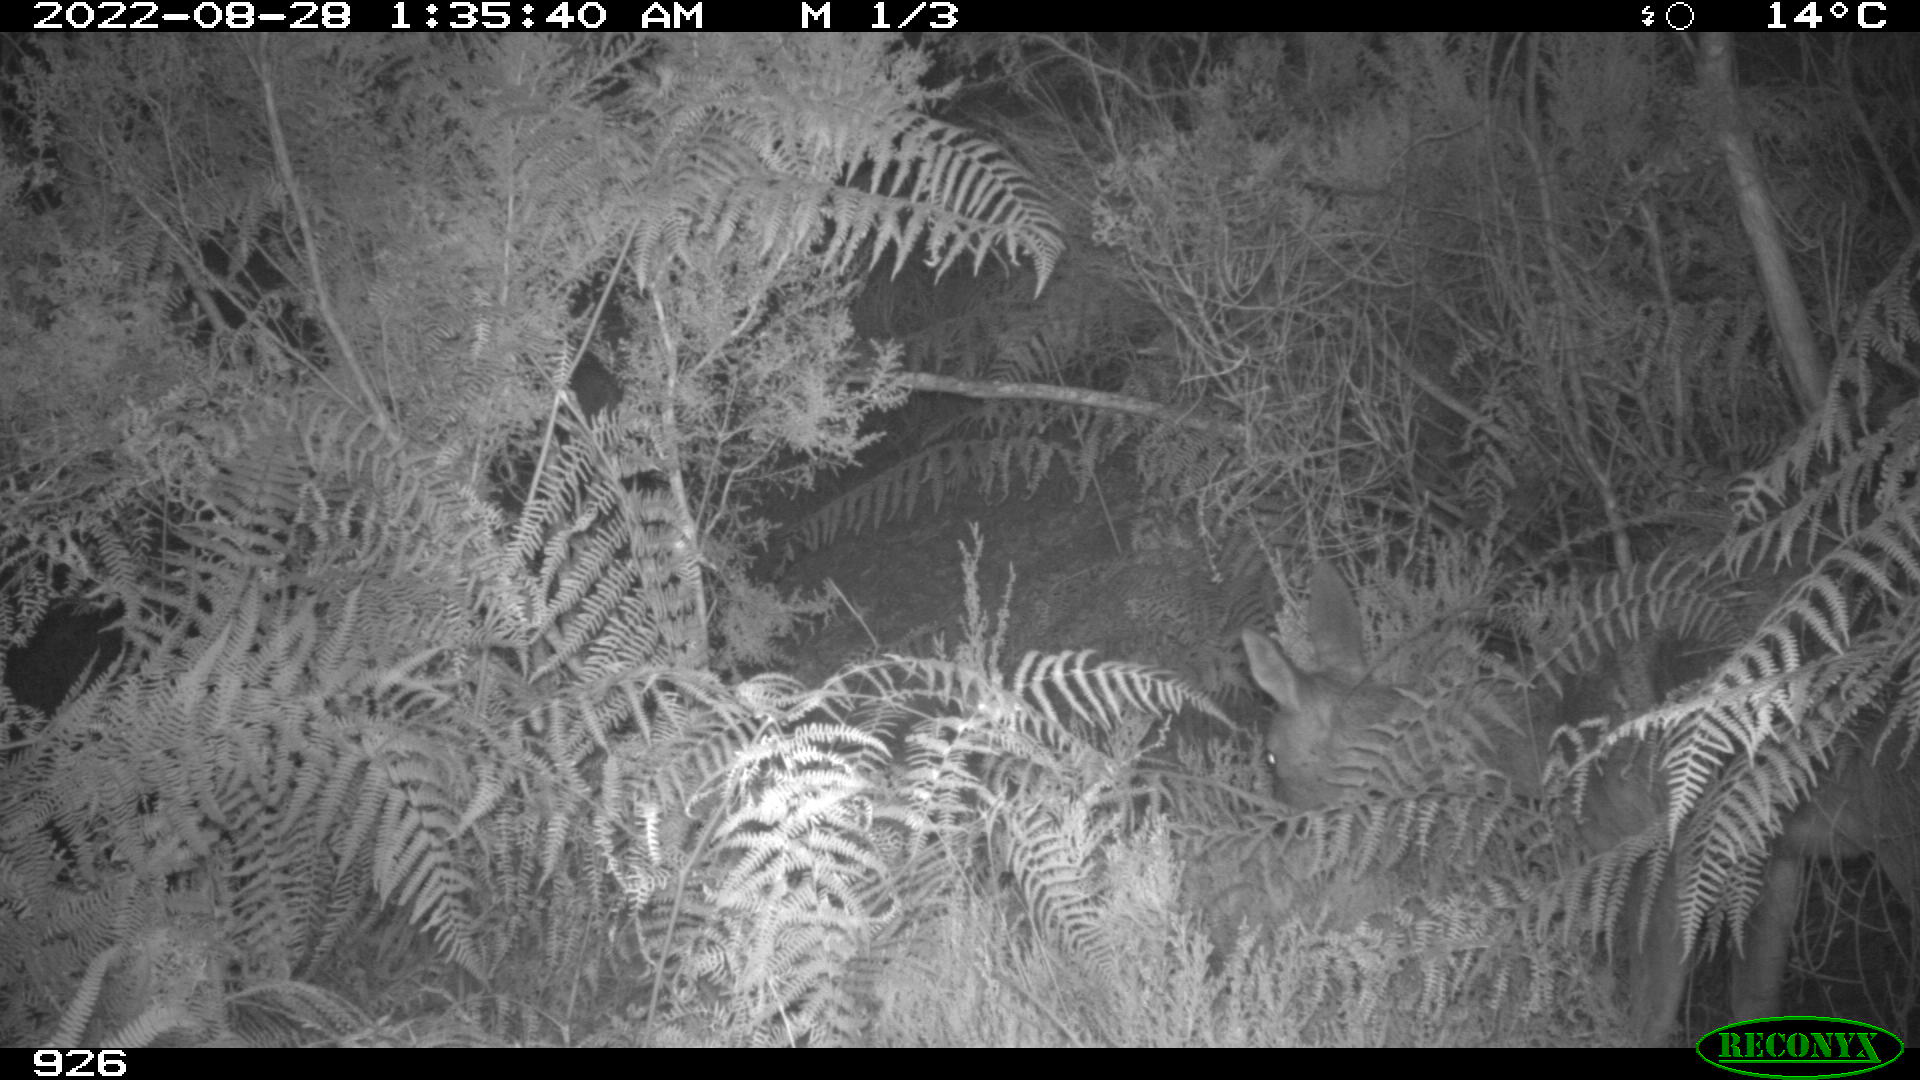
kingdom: Animalia
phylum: Chordata
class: Mammalia
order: Artiodactyla
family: Cervidae
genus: Capreolus
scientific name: Capreolus capreolus
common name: Western roe deer
